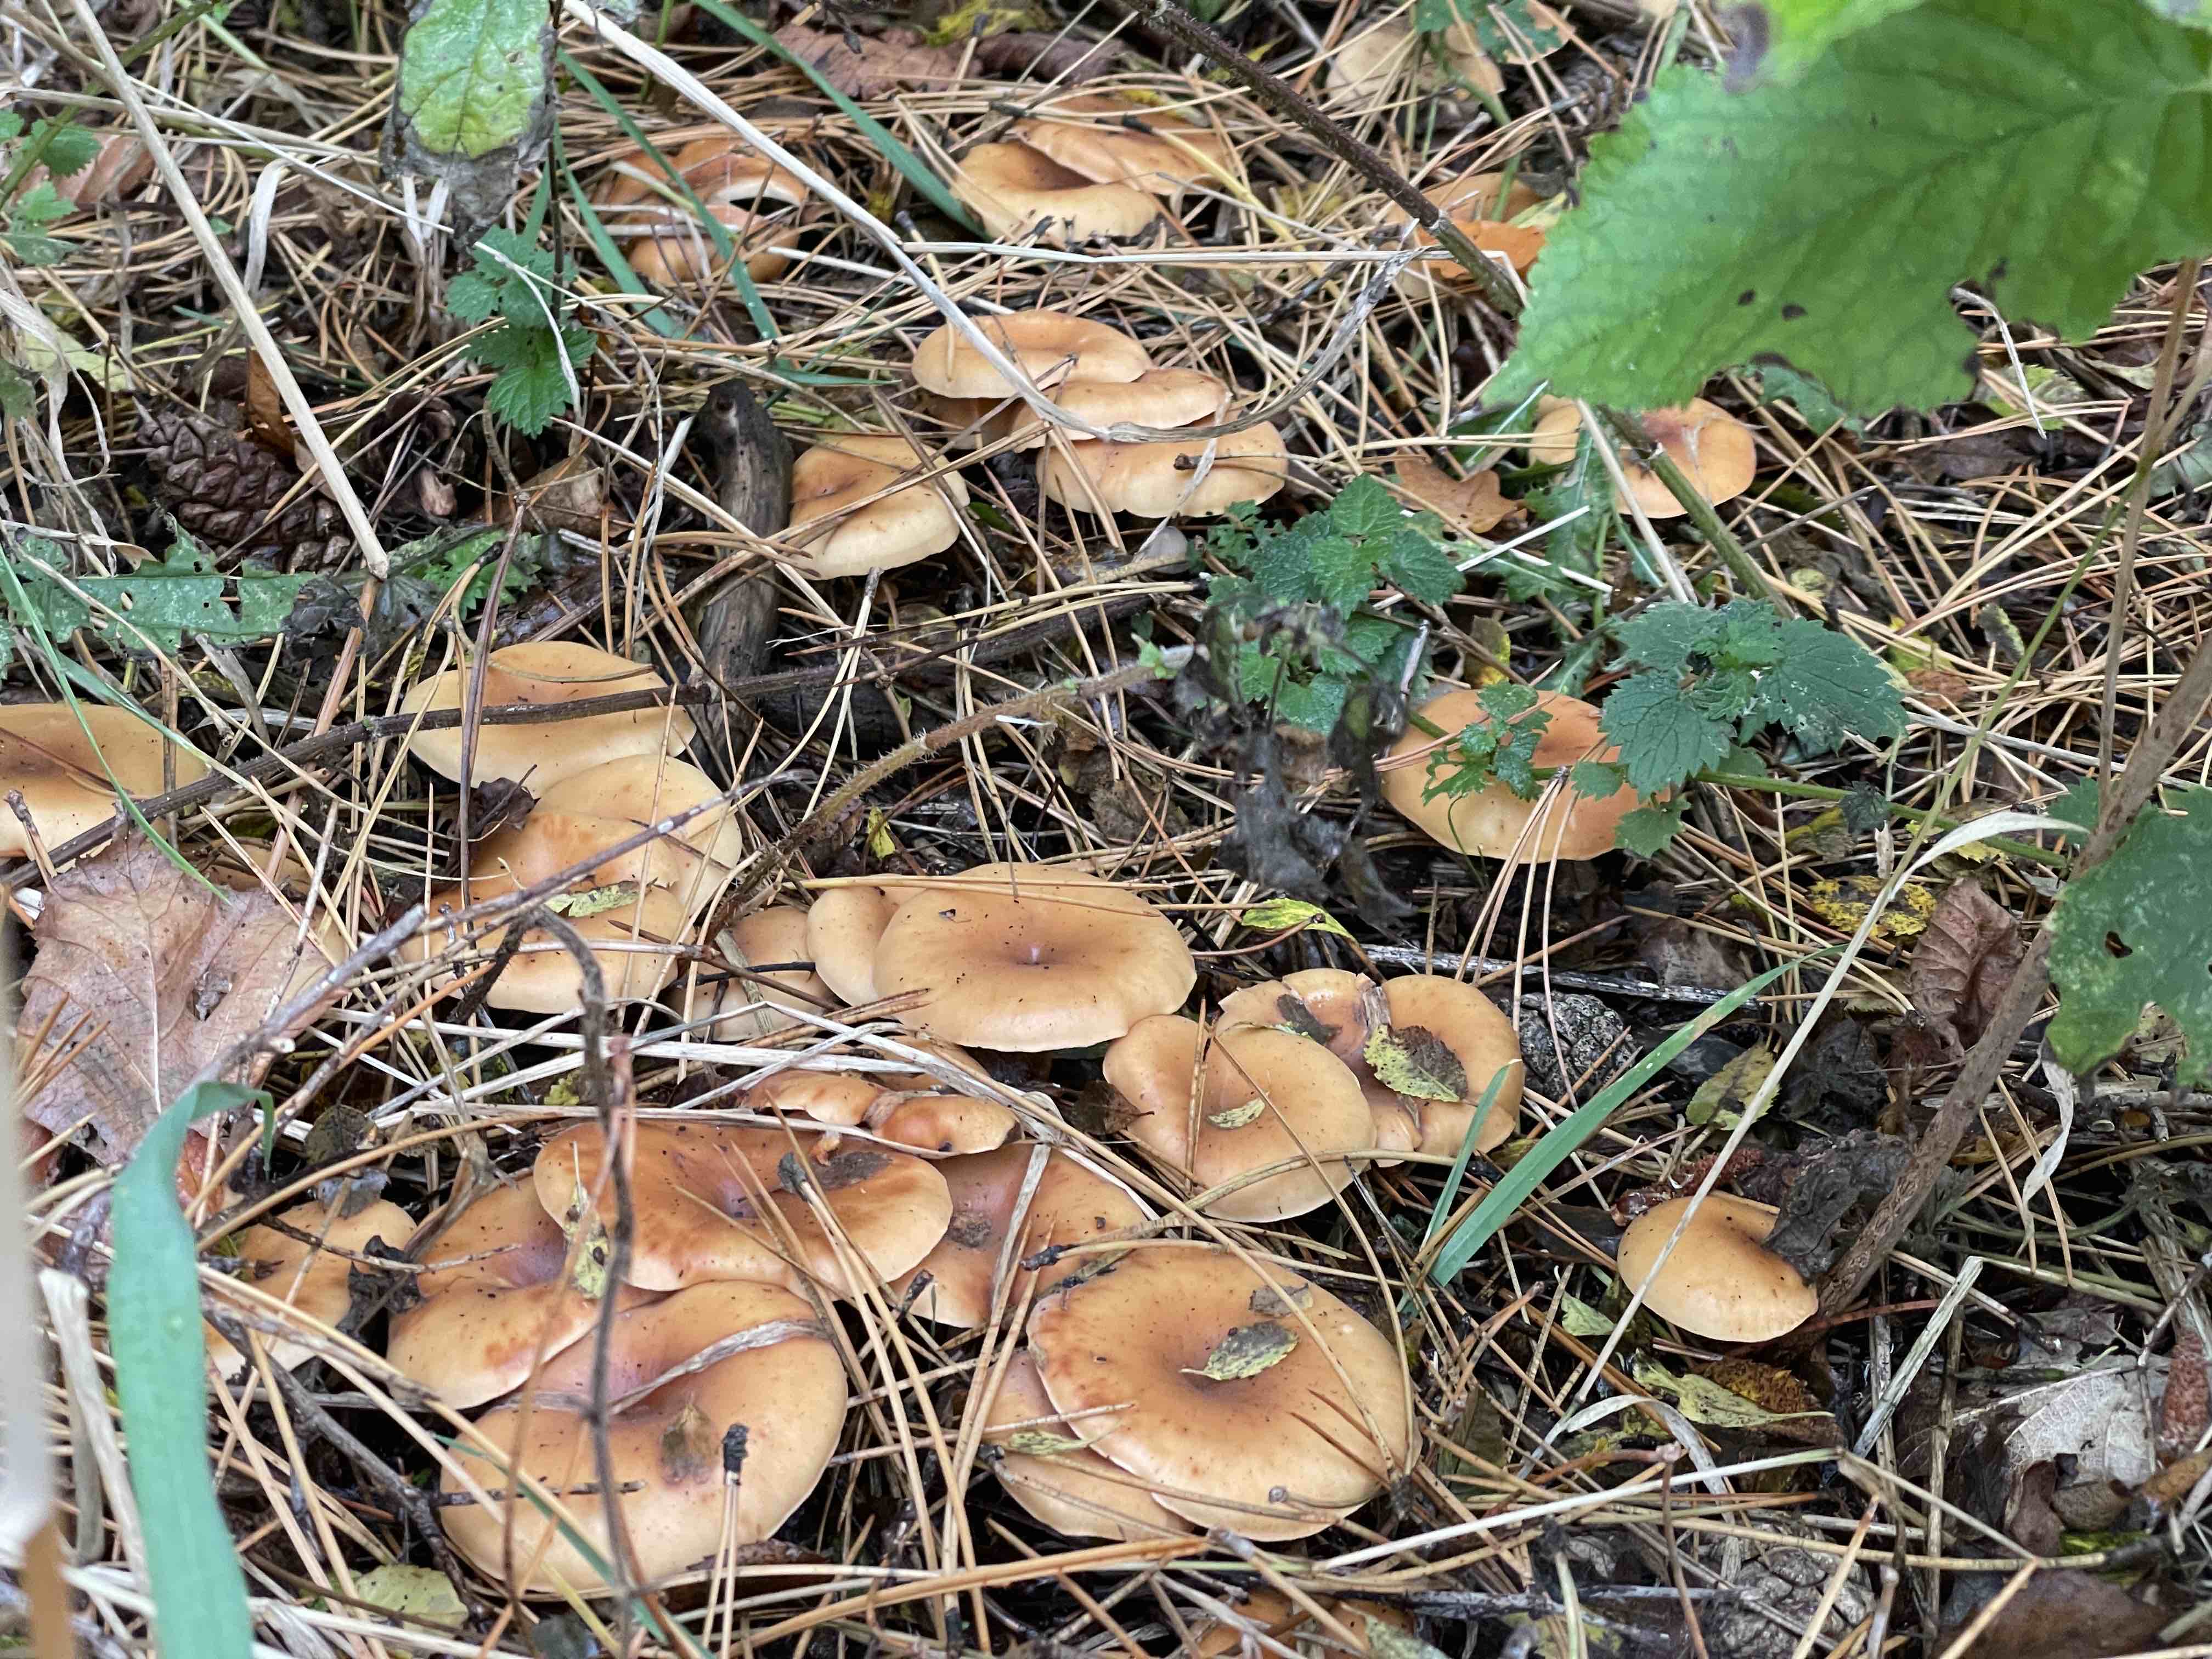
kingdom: Fungi
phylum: Basidiomycota
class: Agaricomycetes
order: Agaricales
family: Tricholomataceae
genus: Paralepista
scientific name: Paralepista flaccida
